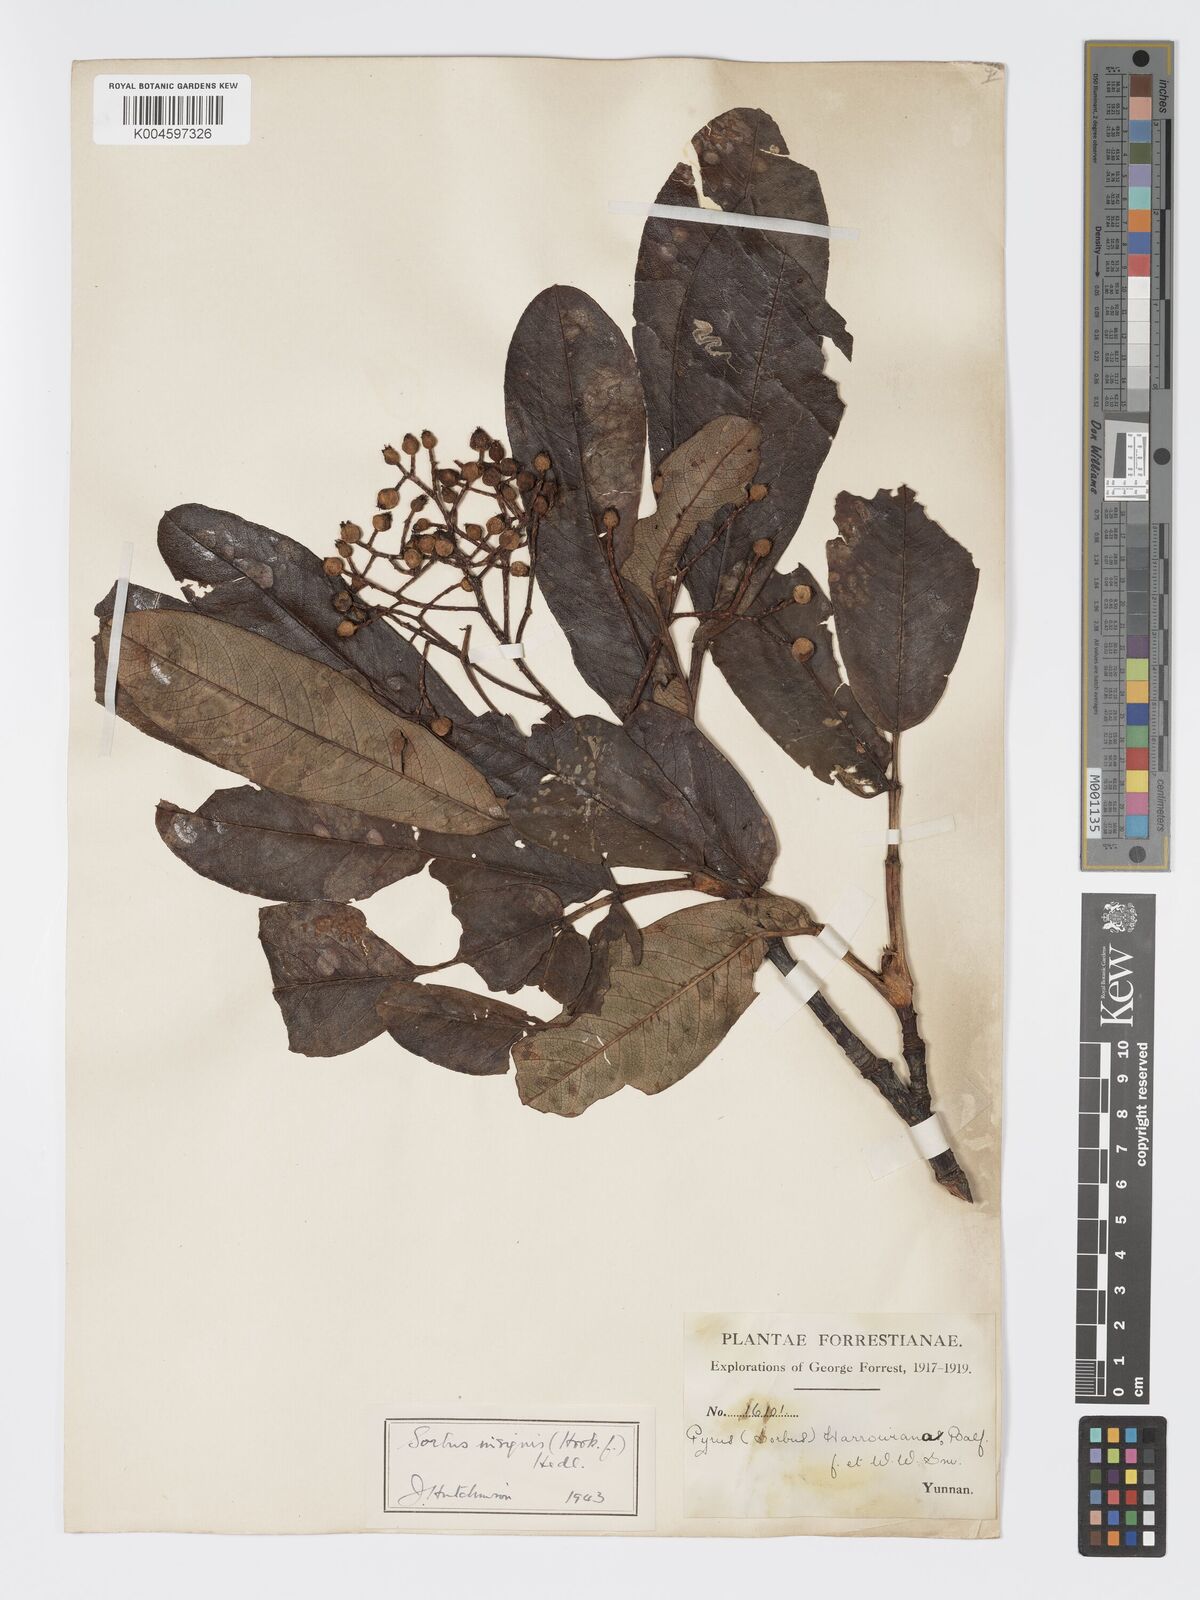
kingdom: Plantae
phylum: Tracheophyta
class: Magnoliopsida
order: Rosales
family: Rosaceae
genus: Sorbus
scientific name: Sorbus
